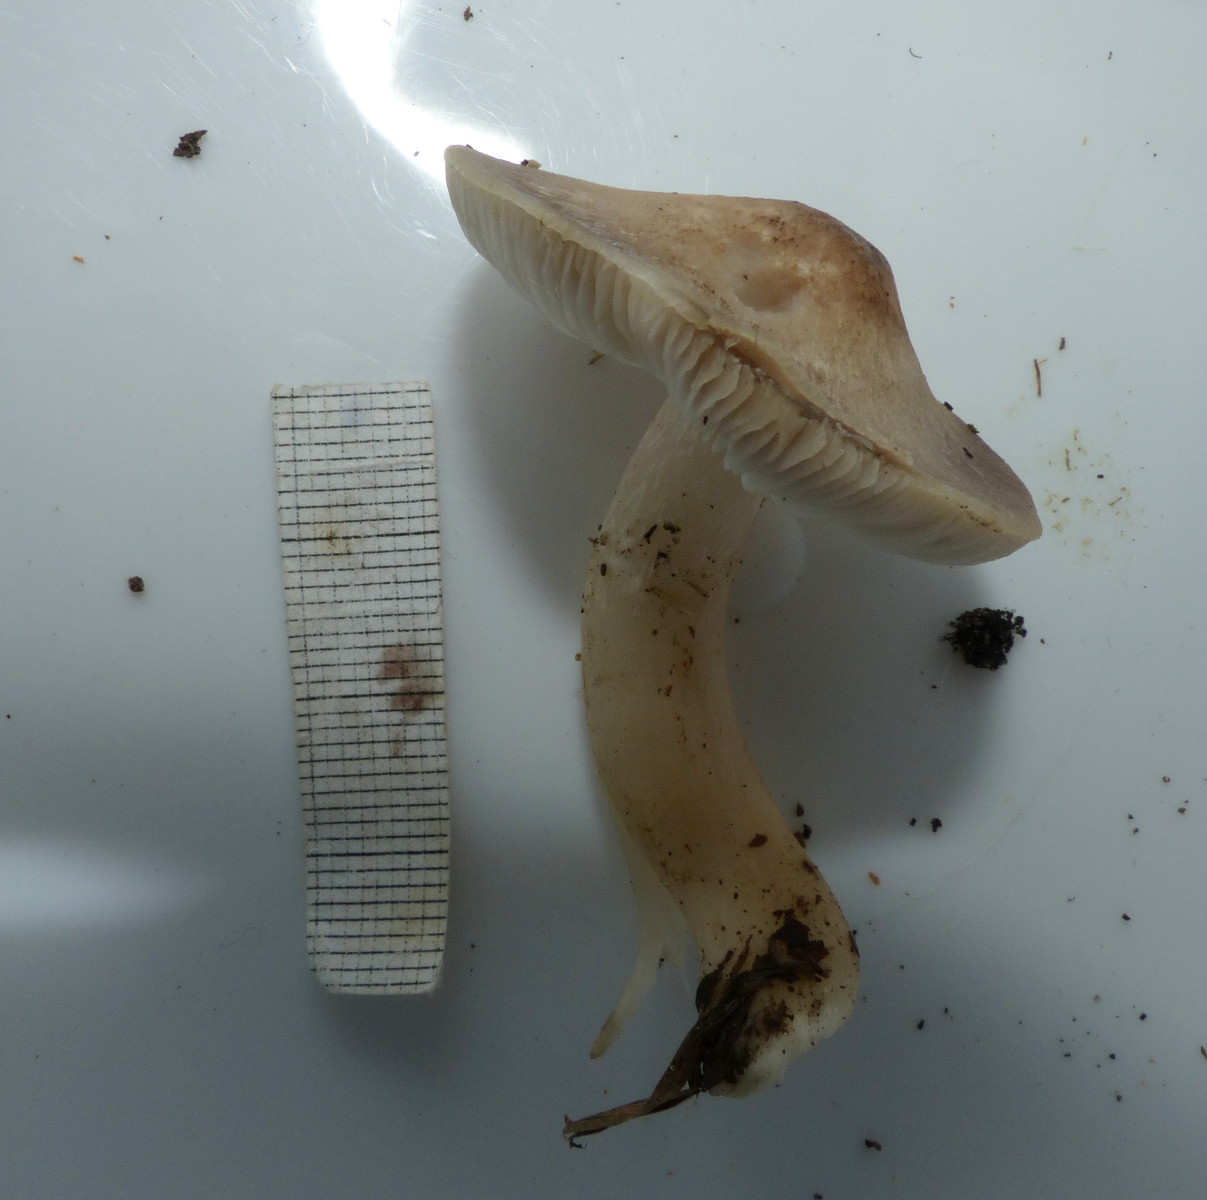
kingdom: Fungi
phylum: Basidiomycota
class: Agaricomycetes
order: Agaricales
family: Tricholomataceae
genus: Tricholoma
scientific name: Tricholoma
